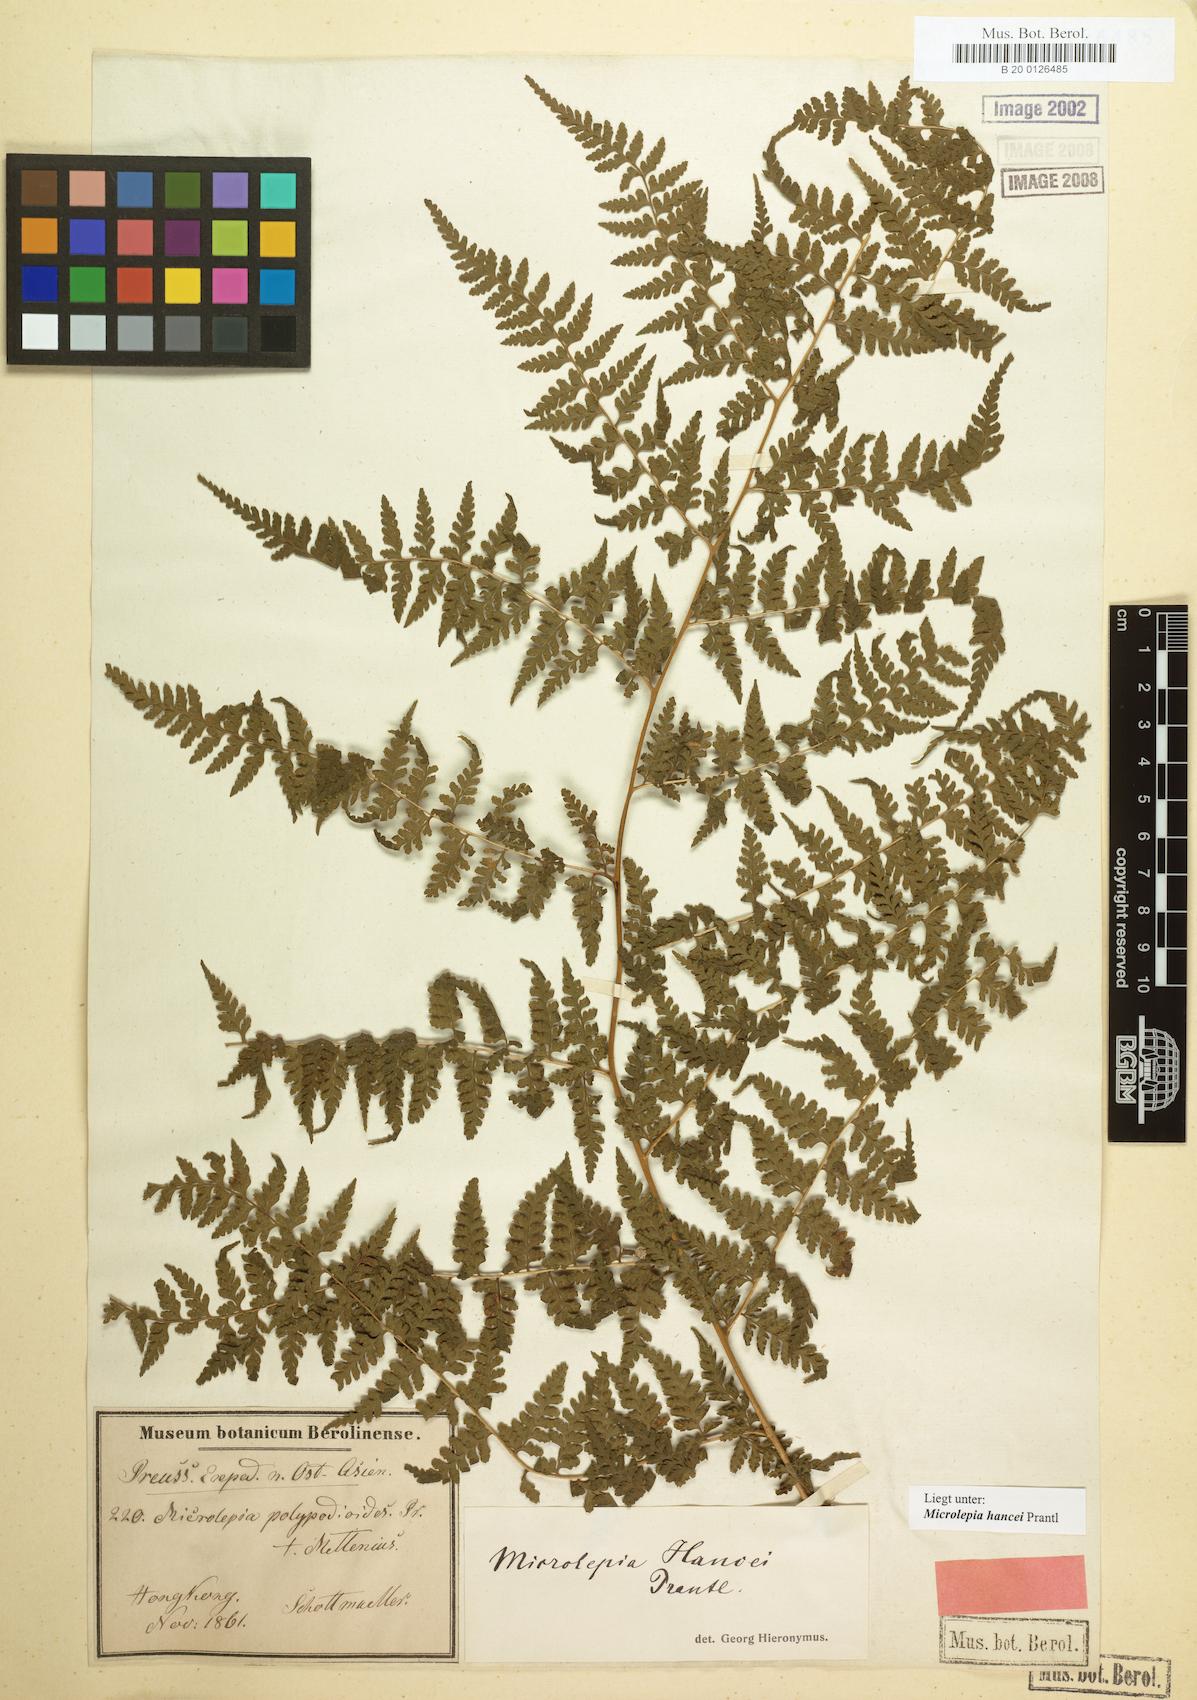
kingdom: Plantae
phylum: Tracheophyta
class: Polypodiopsida
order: Polypodiales
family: Dennstaedtiaceae
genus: Microlepia
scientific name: Microlepia nepalensis
